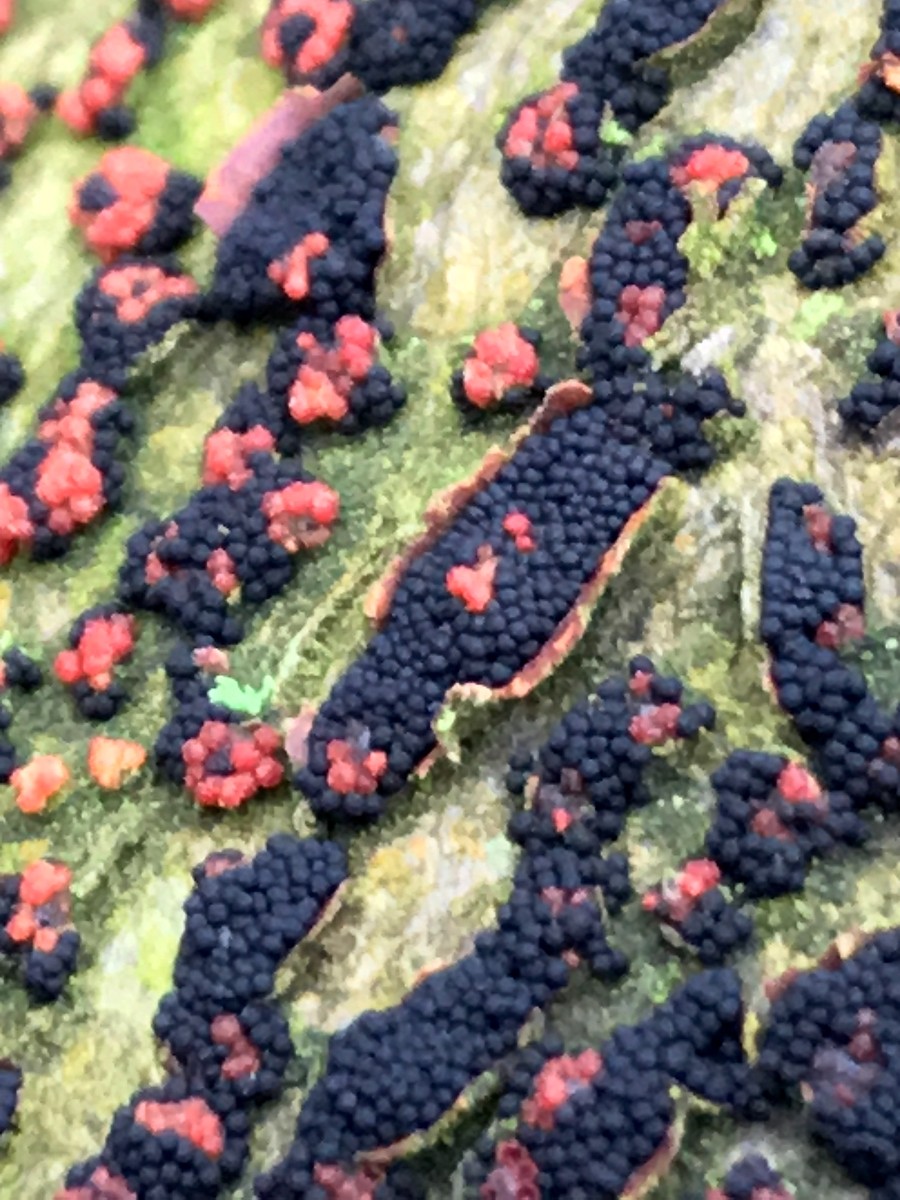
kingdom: Fungi
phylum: Ascomycota
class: Sordariomycetes
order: Hypocreales
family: Nectriaceae
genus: Nectria
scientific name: Nectria cinnabarina
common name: almindelig cinnobersvamp
